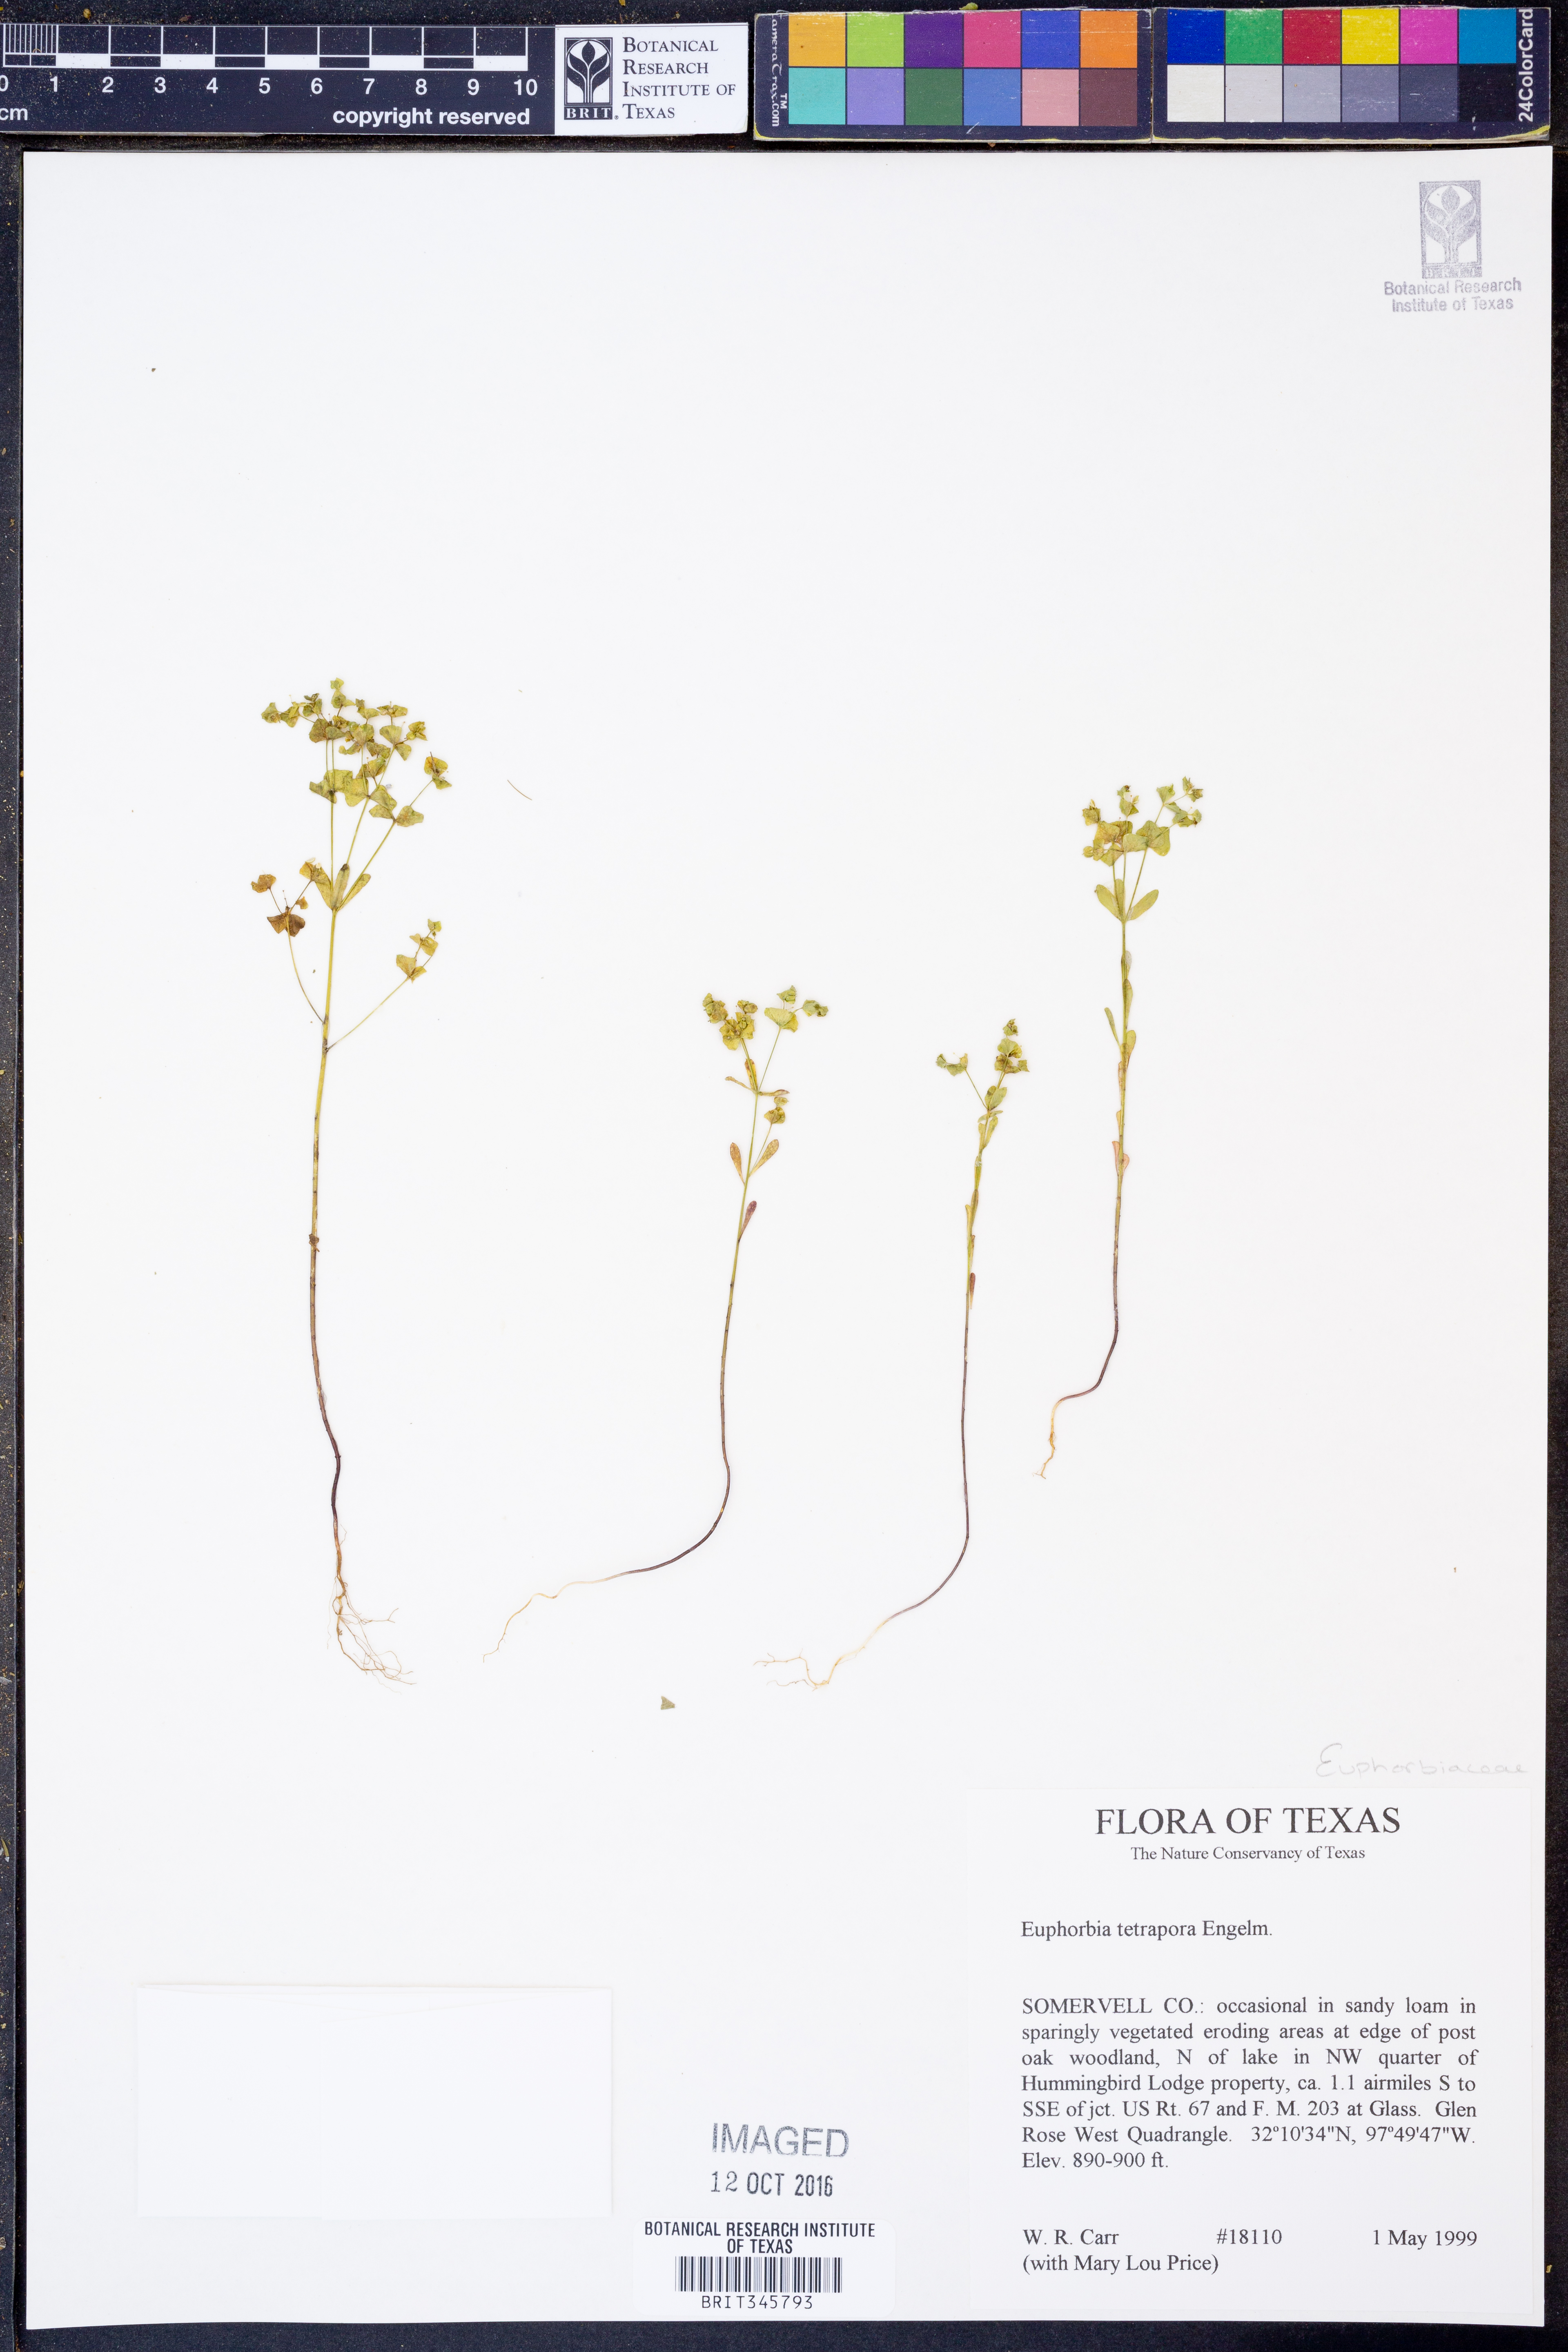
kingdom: Plantae
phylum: Tracheophyta
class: Magnoliopsida
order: Malpighiales
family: Euphorbiaceae
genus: Euphorbia
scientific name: Euphorbia tetrapora
